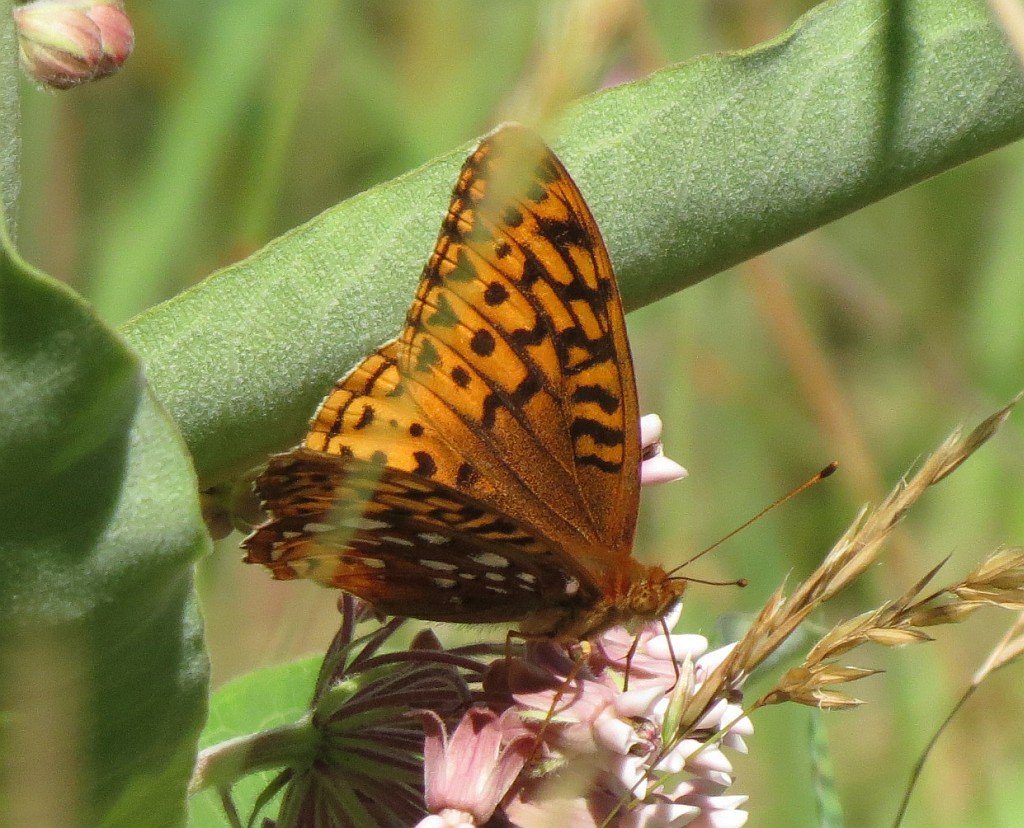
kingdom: Animalia
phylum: Arthropoda
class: Insecta
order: Lepidoptera
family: Nymphalidae
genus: Speyeria
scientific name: Speyeria cybele
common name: Great Spangled Fritillary
